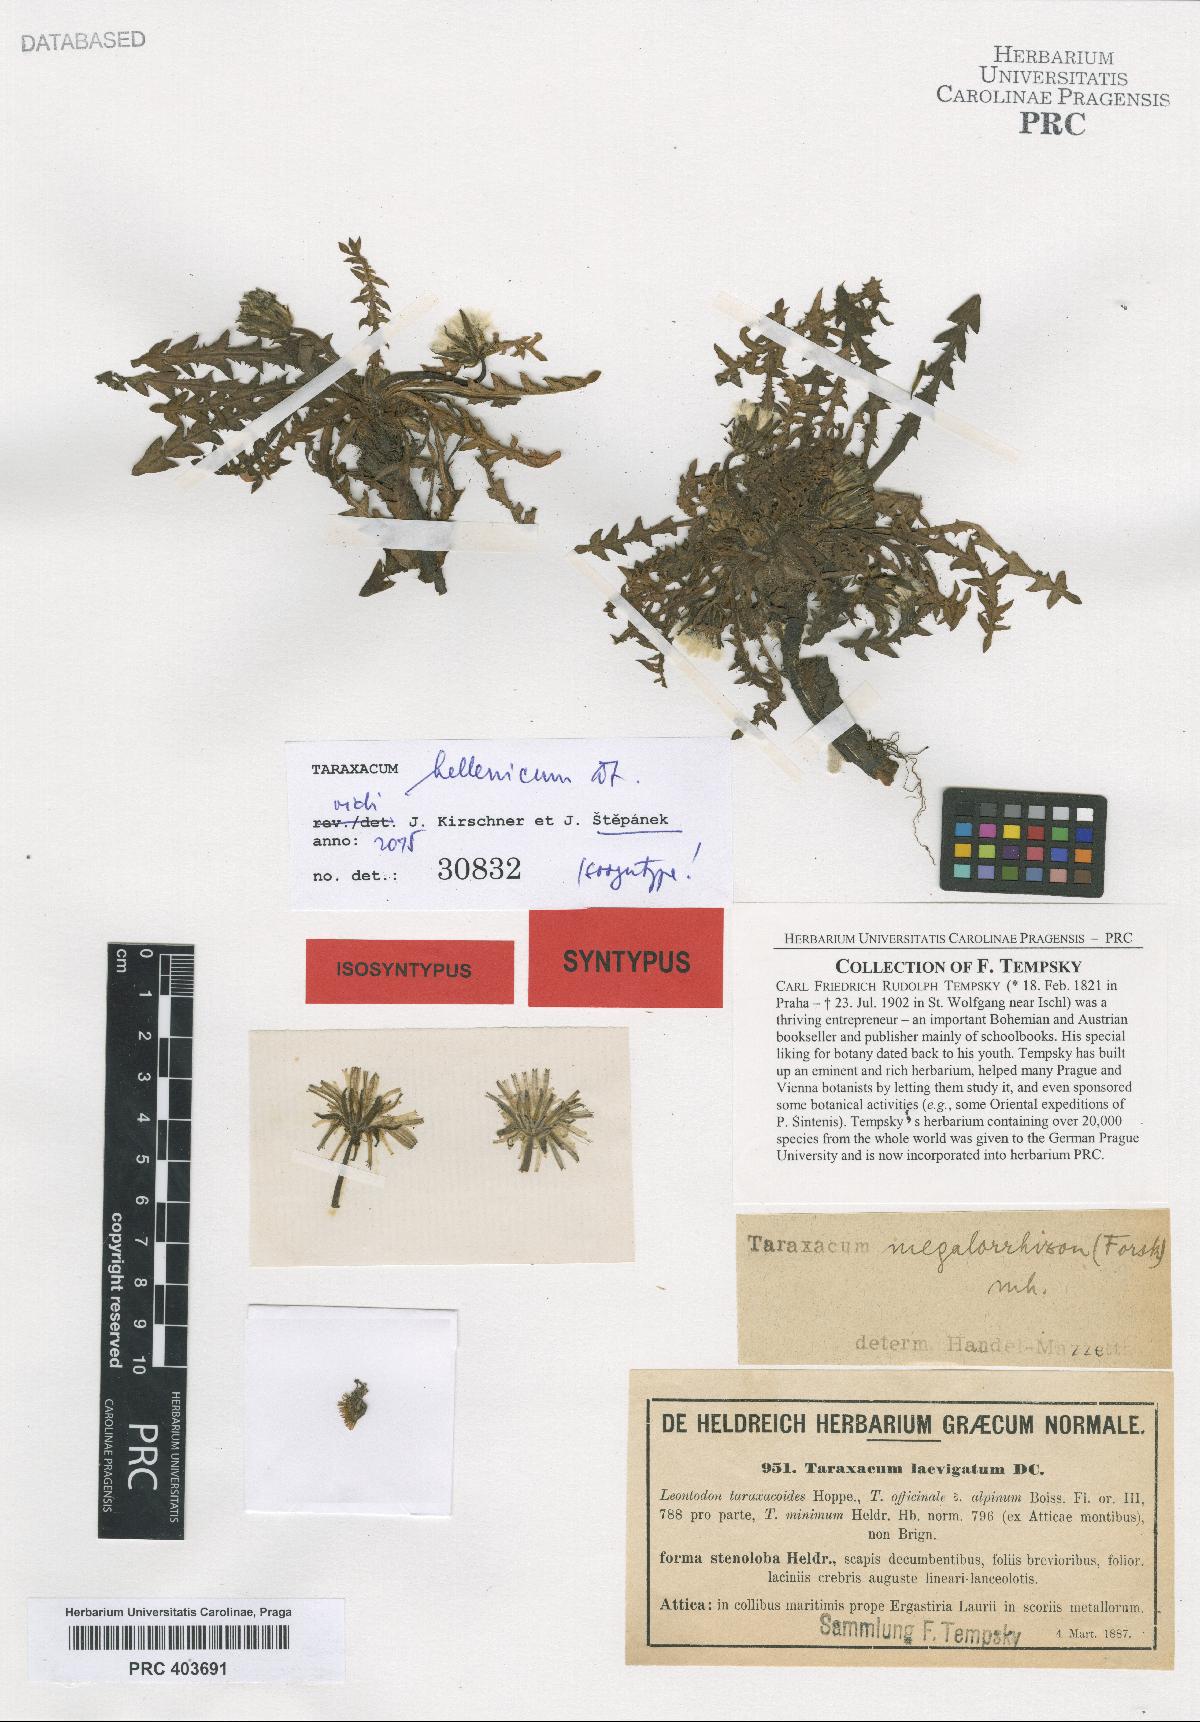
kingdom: Plantae
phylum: Tracheophyta
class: Magnoliopsida
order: Asterales
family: Asteraceae
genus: Taraxacum
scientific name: Taraxacum hellenicum
